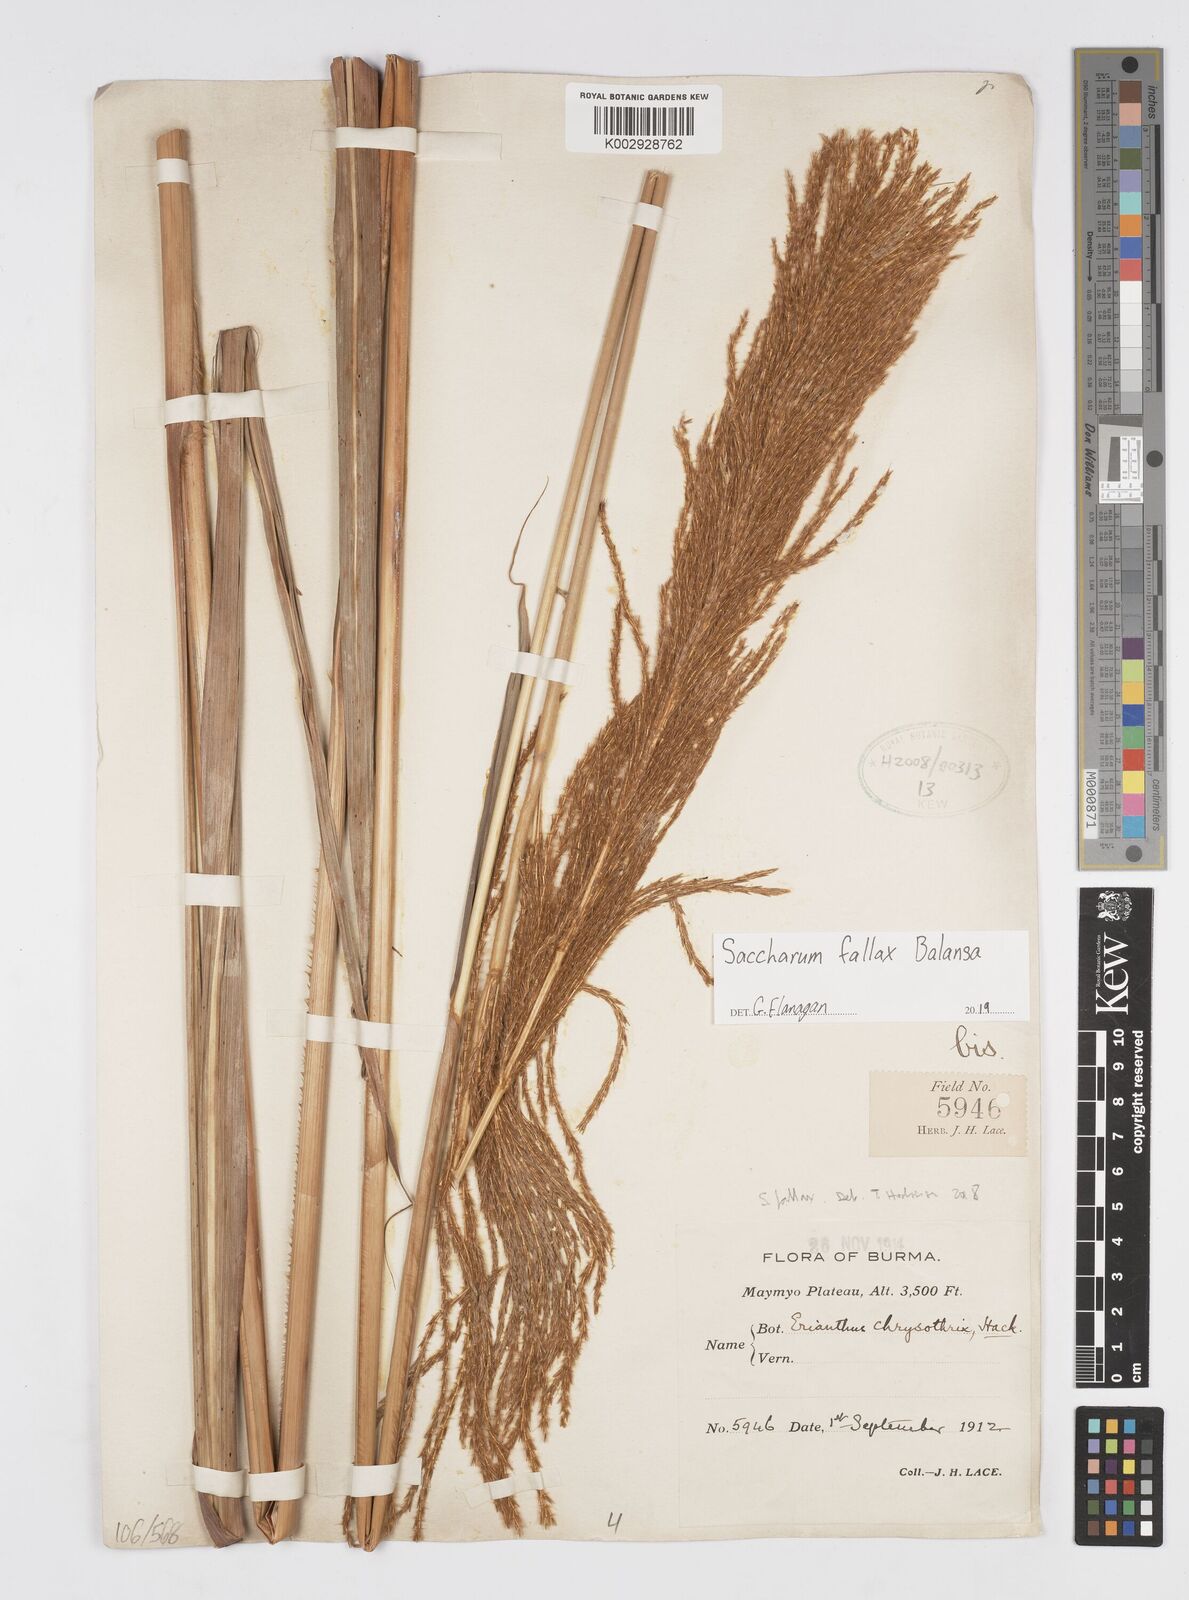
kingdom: Plantae
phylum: Tracheophyta
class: Liliopsida
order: Poales
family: Poaceae
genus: Narenga
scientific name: Narenga fallax
